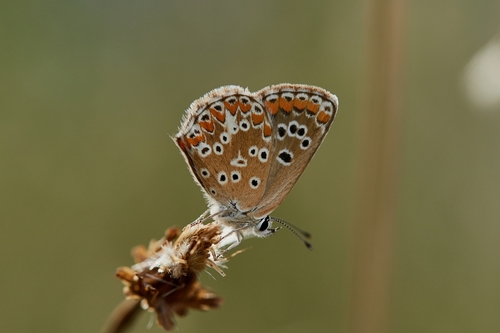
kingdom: Animalia
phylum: Arthropoda
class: Insecta
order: Lepidoptera
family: Lycaenidae
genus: Aricia
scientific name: Aricia cramera
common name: Eschscholtz´s brown  argus
